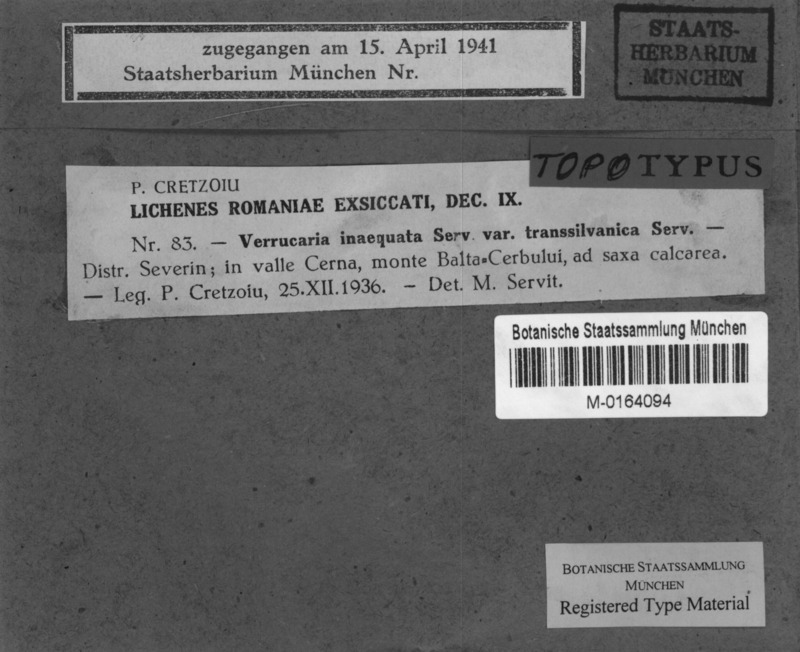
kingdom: Fungi
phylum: Ascomycota
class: Eurotiomycetes
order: Verrucariales
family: Verrucariaceae
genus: Bagliettoa
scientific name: Bagliettoa inaequata
